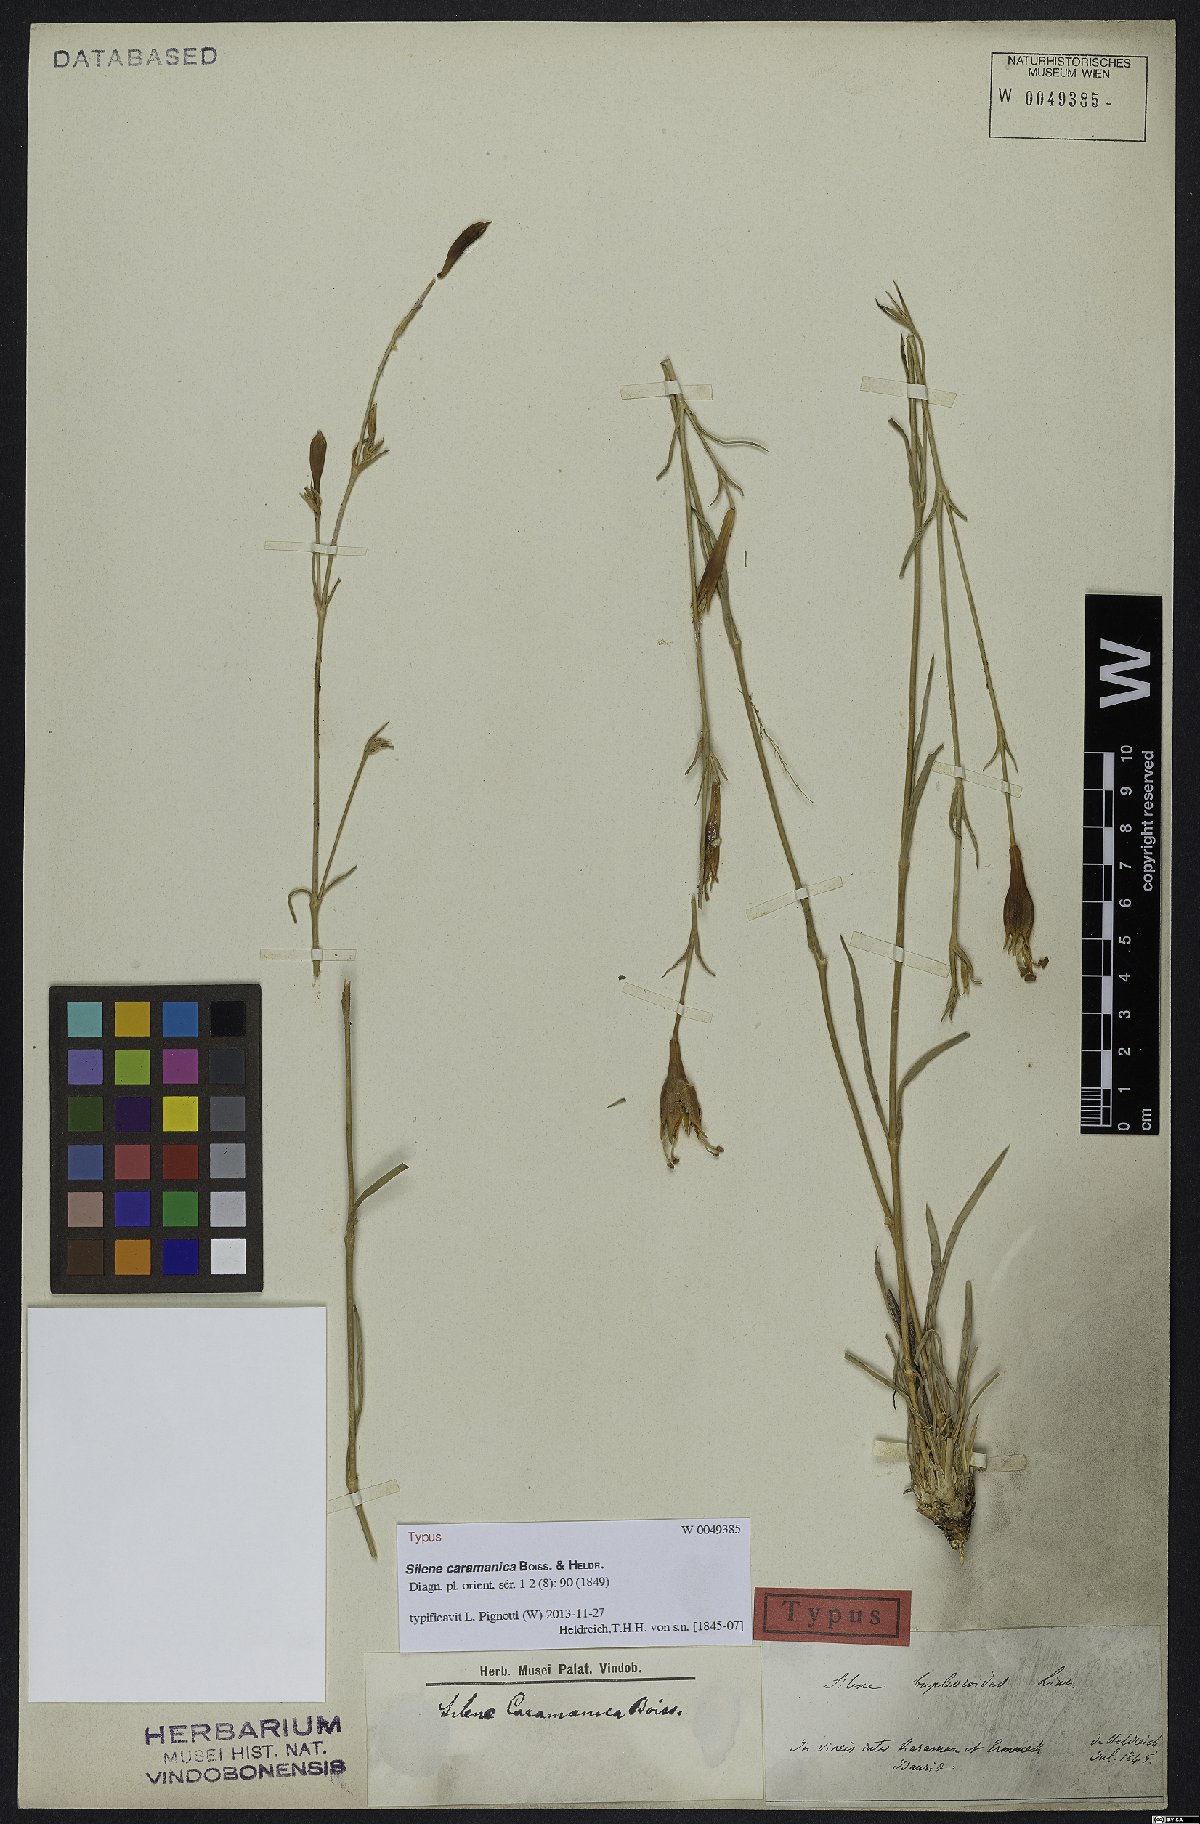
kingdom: Plantae
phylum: Tracheophyta
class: Magnoliopsida
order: Caryophyllales
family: Caryophyllaceae
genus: Silene
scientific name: Silene caramanica
